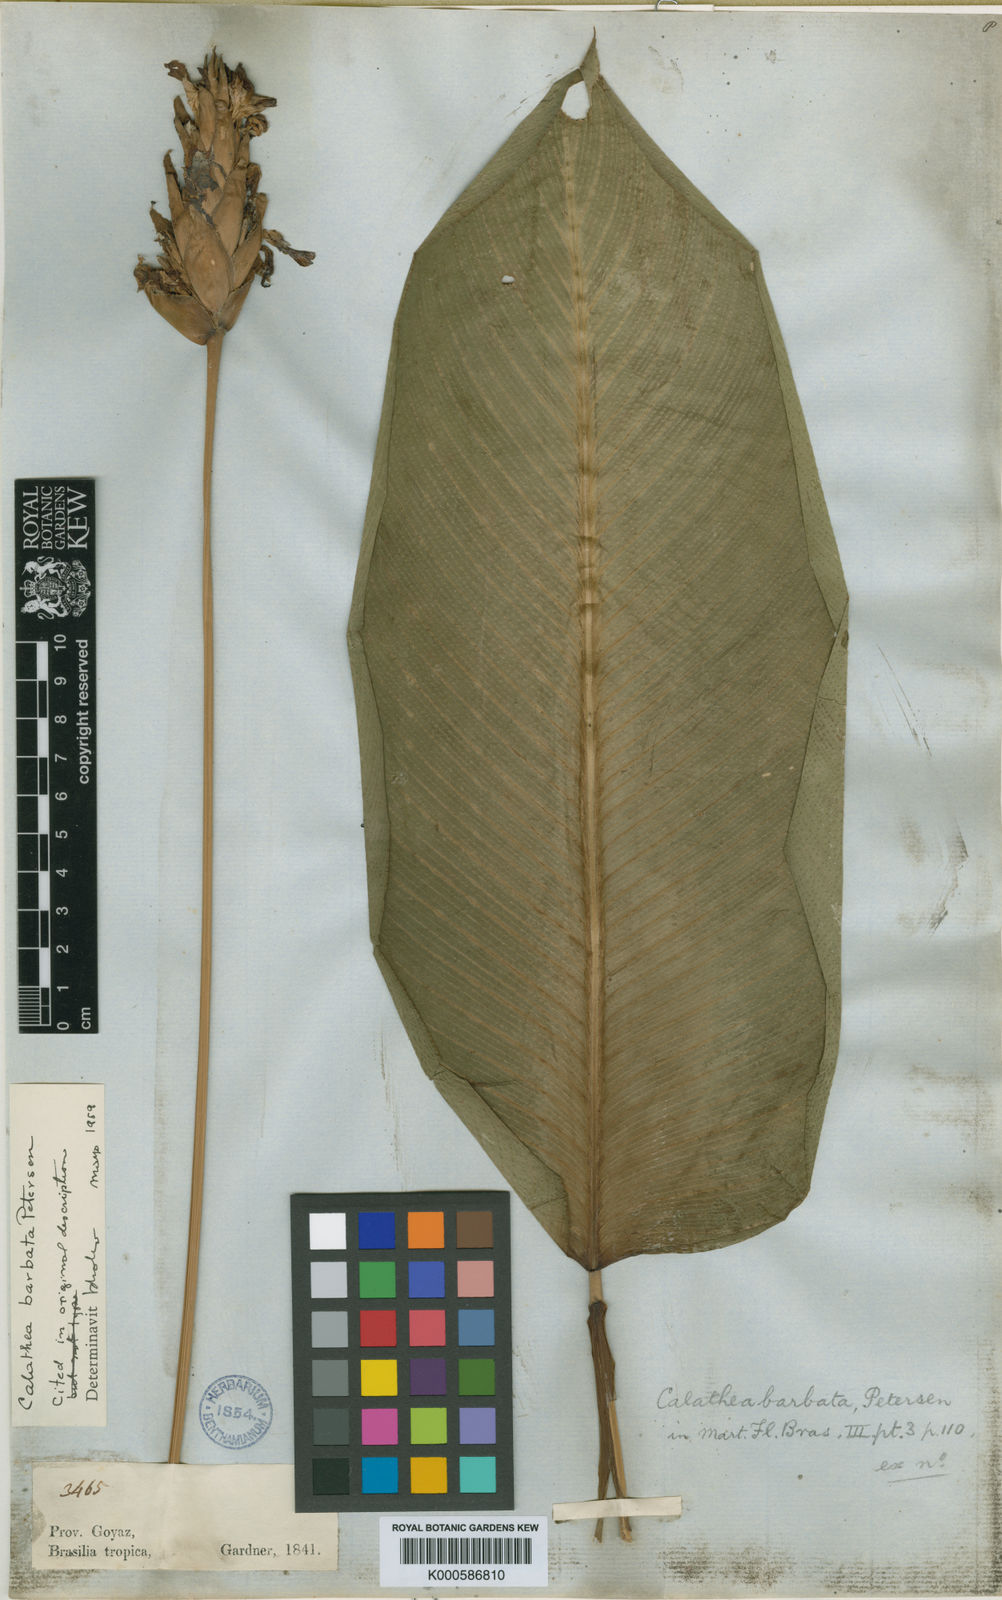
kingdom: Plantae
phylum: Tracheophyta
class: Liliopsida
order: Zingiberales
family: Marantaceae
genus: Goeppertia
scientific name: Goeppertia barbata
